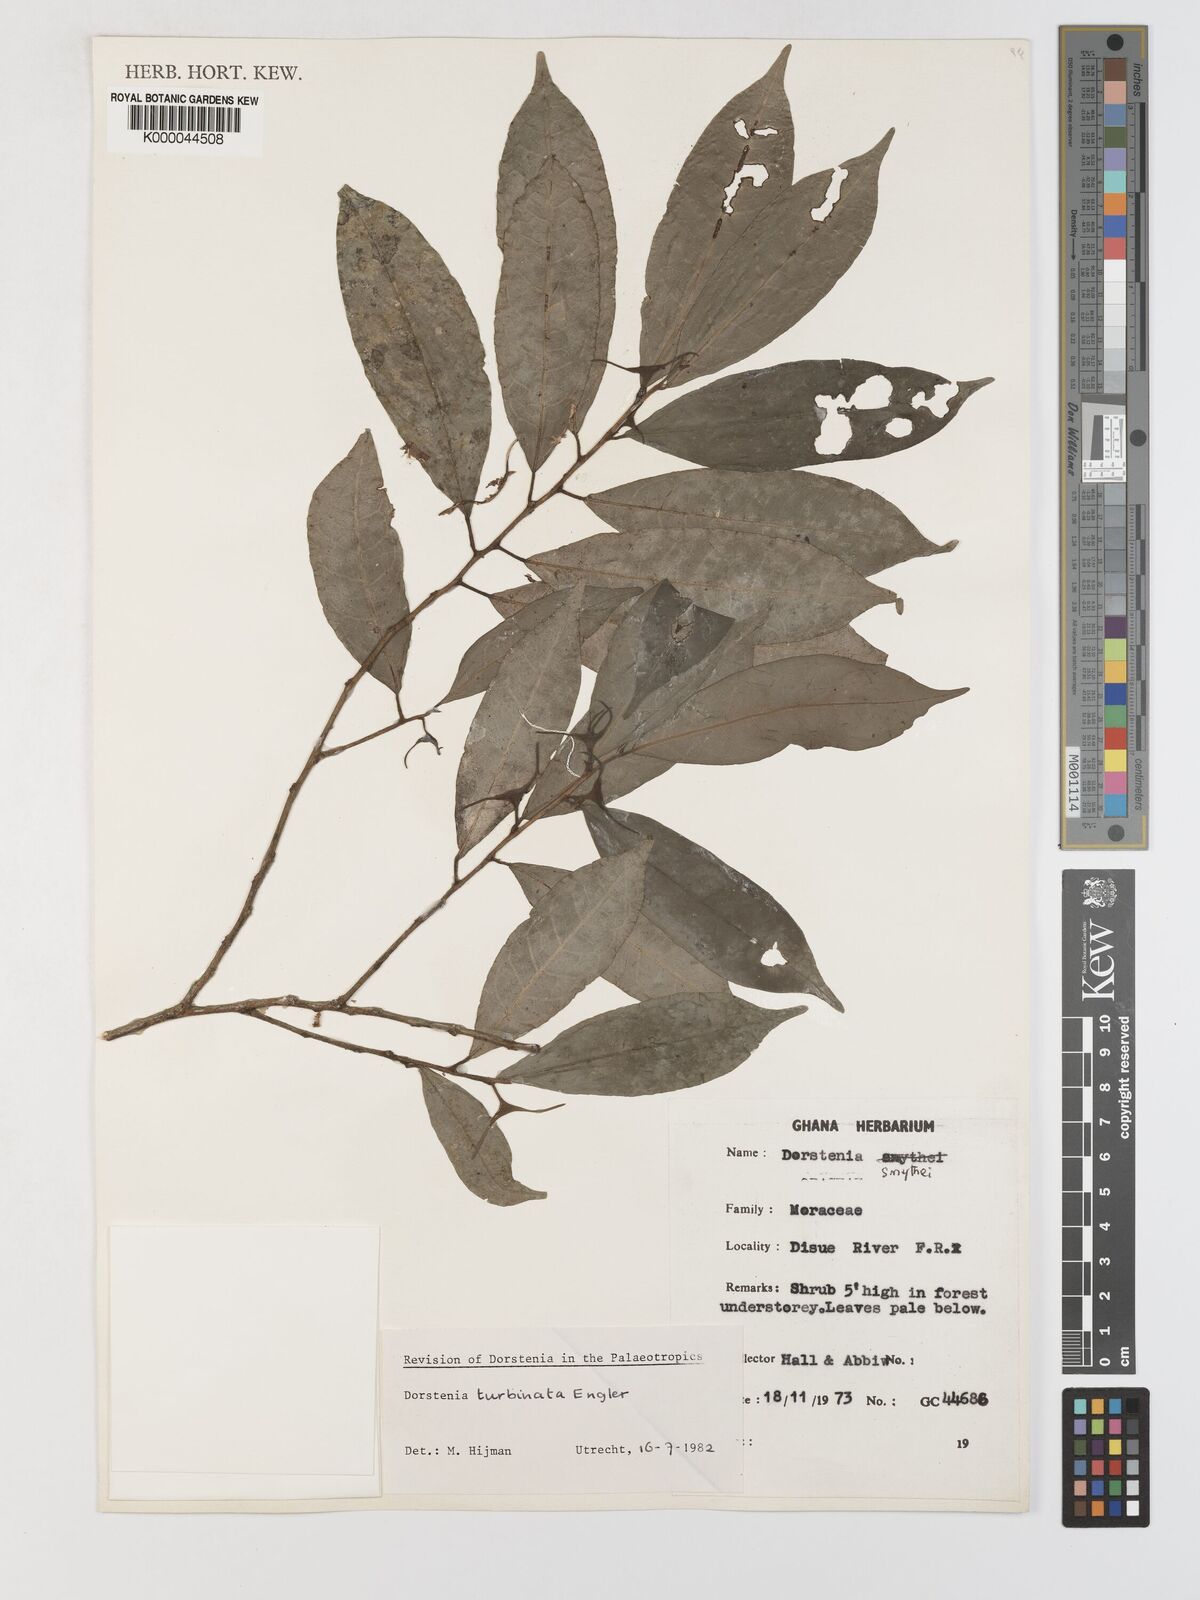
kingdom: Plantae
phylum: Tracheophyta
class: Magnoliopsida
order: Rosales
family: Moraceae
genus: Hijmania
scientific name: Hijmania turbinata
